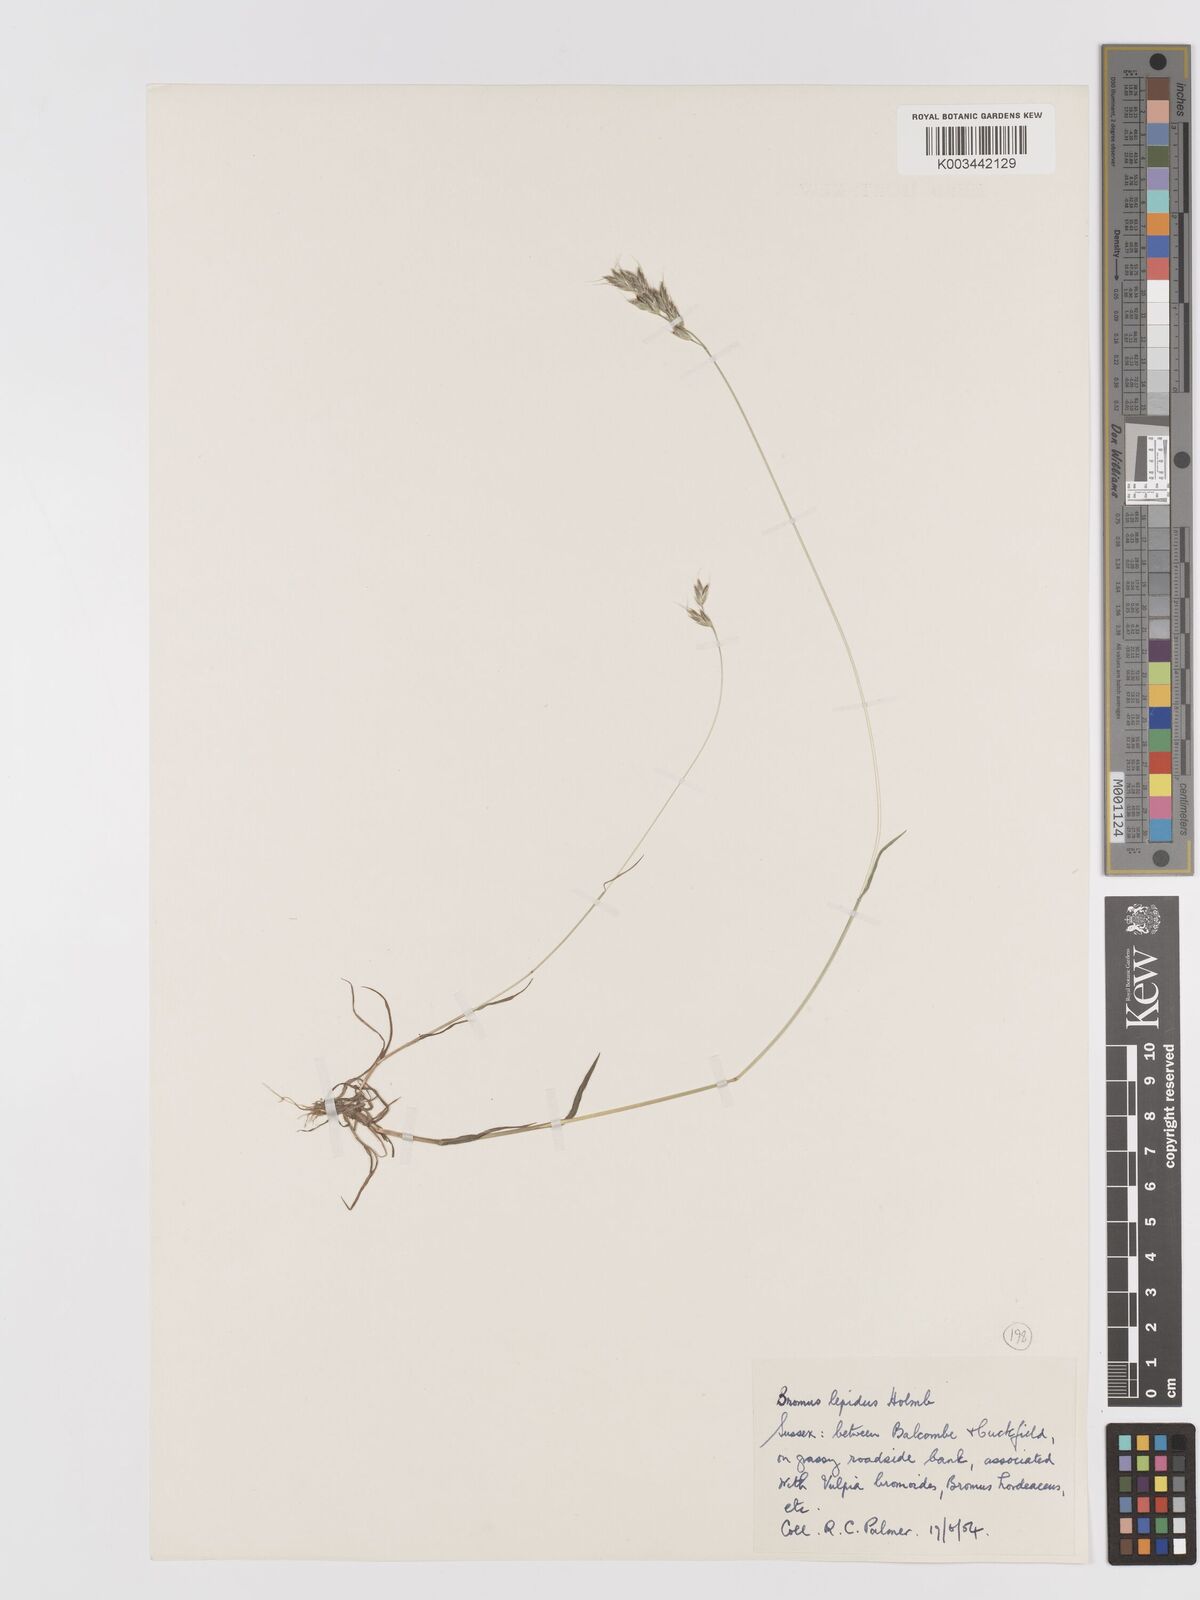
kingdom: Plantae
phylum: Tracheophyta
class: Liliopsida
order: Poales
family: Poaceae
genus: Bromus
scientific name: Bromus lepidus
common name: Slender soft-brome
